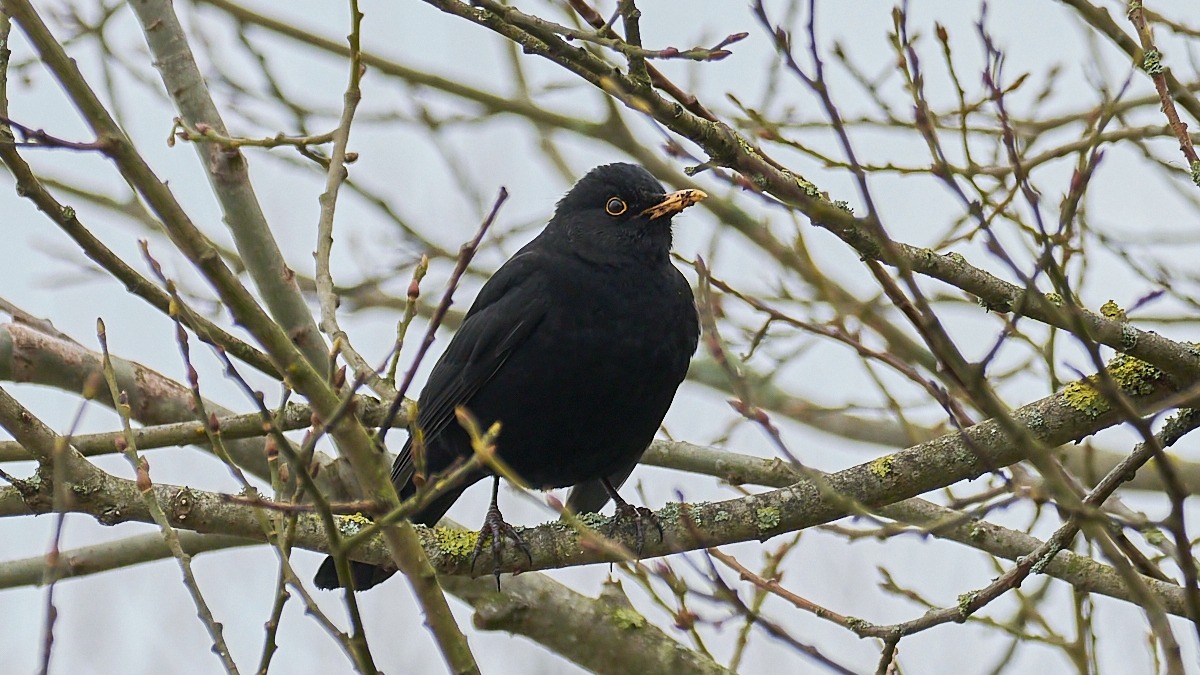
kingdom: Animalia
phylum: Chordata
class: Aves
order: Passeriformes
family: Turdidae
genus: Turdus
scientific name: Turdus merula
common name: Solsort
